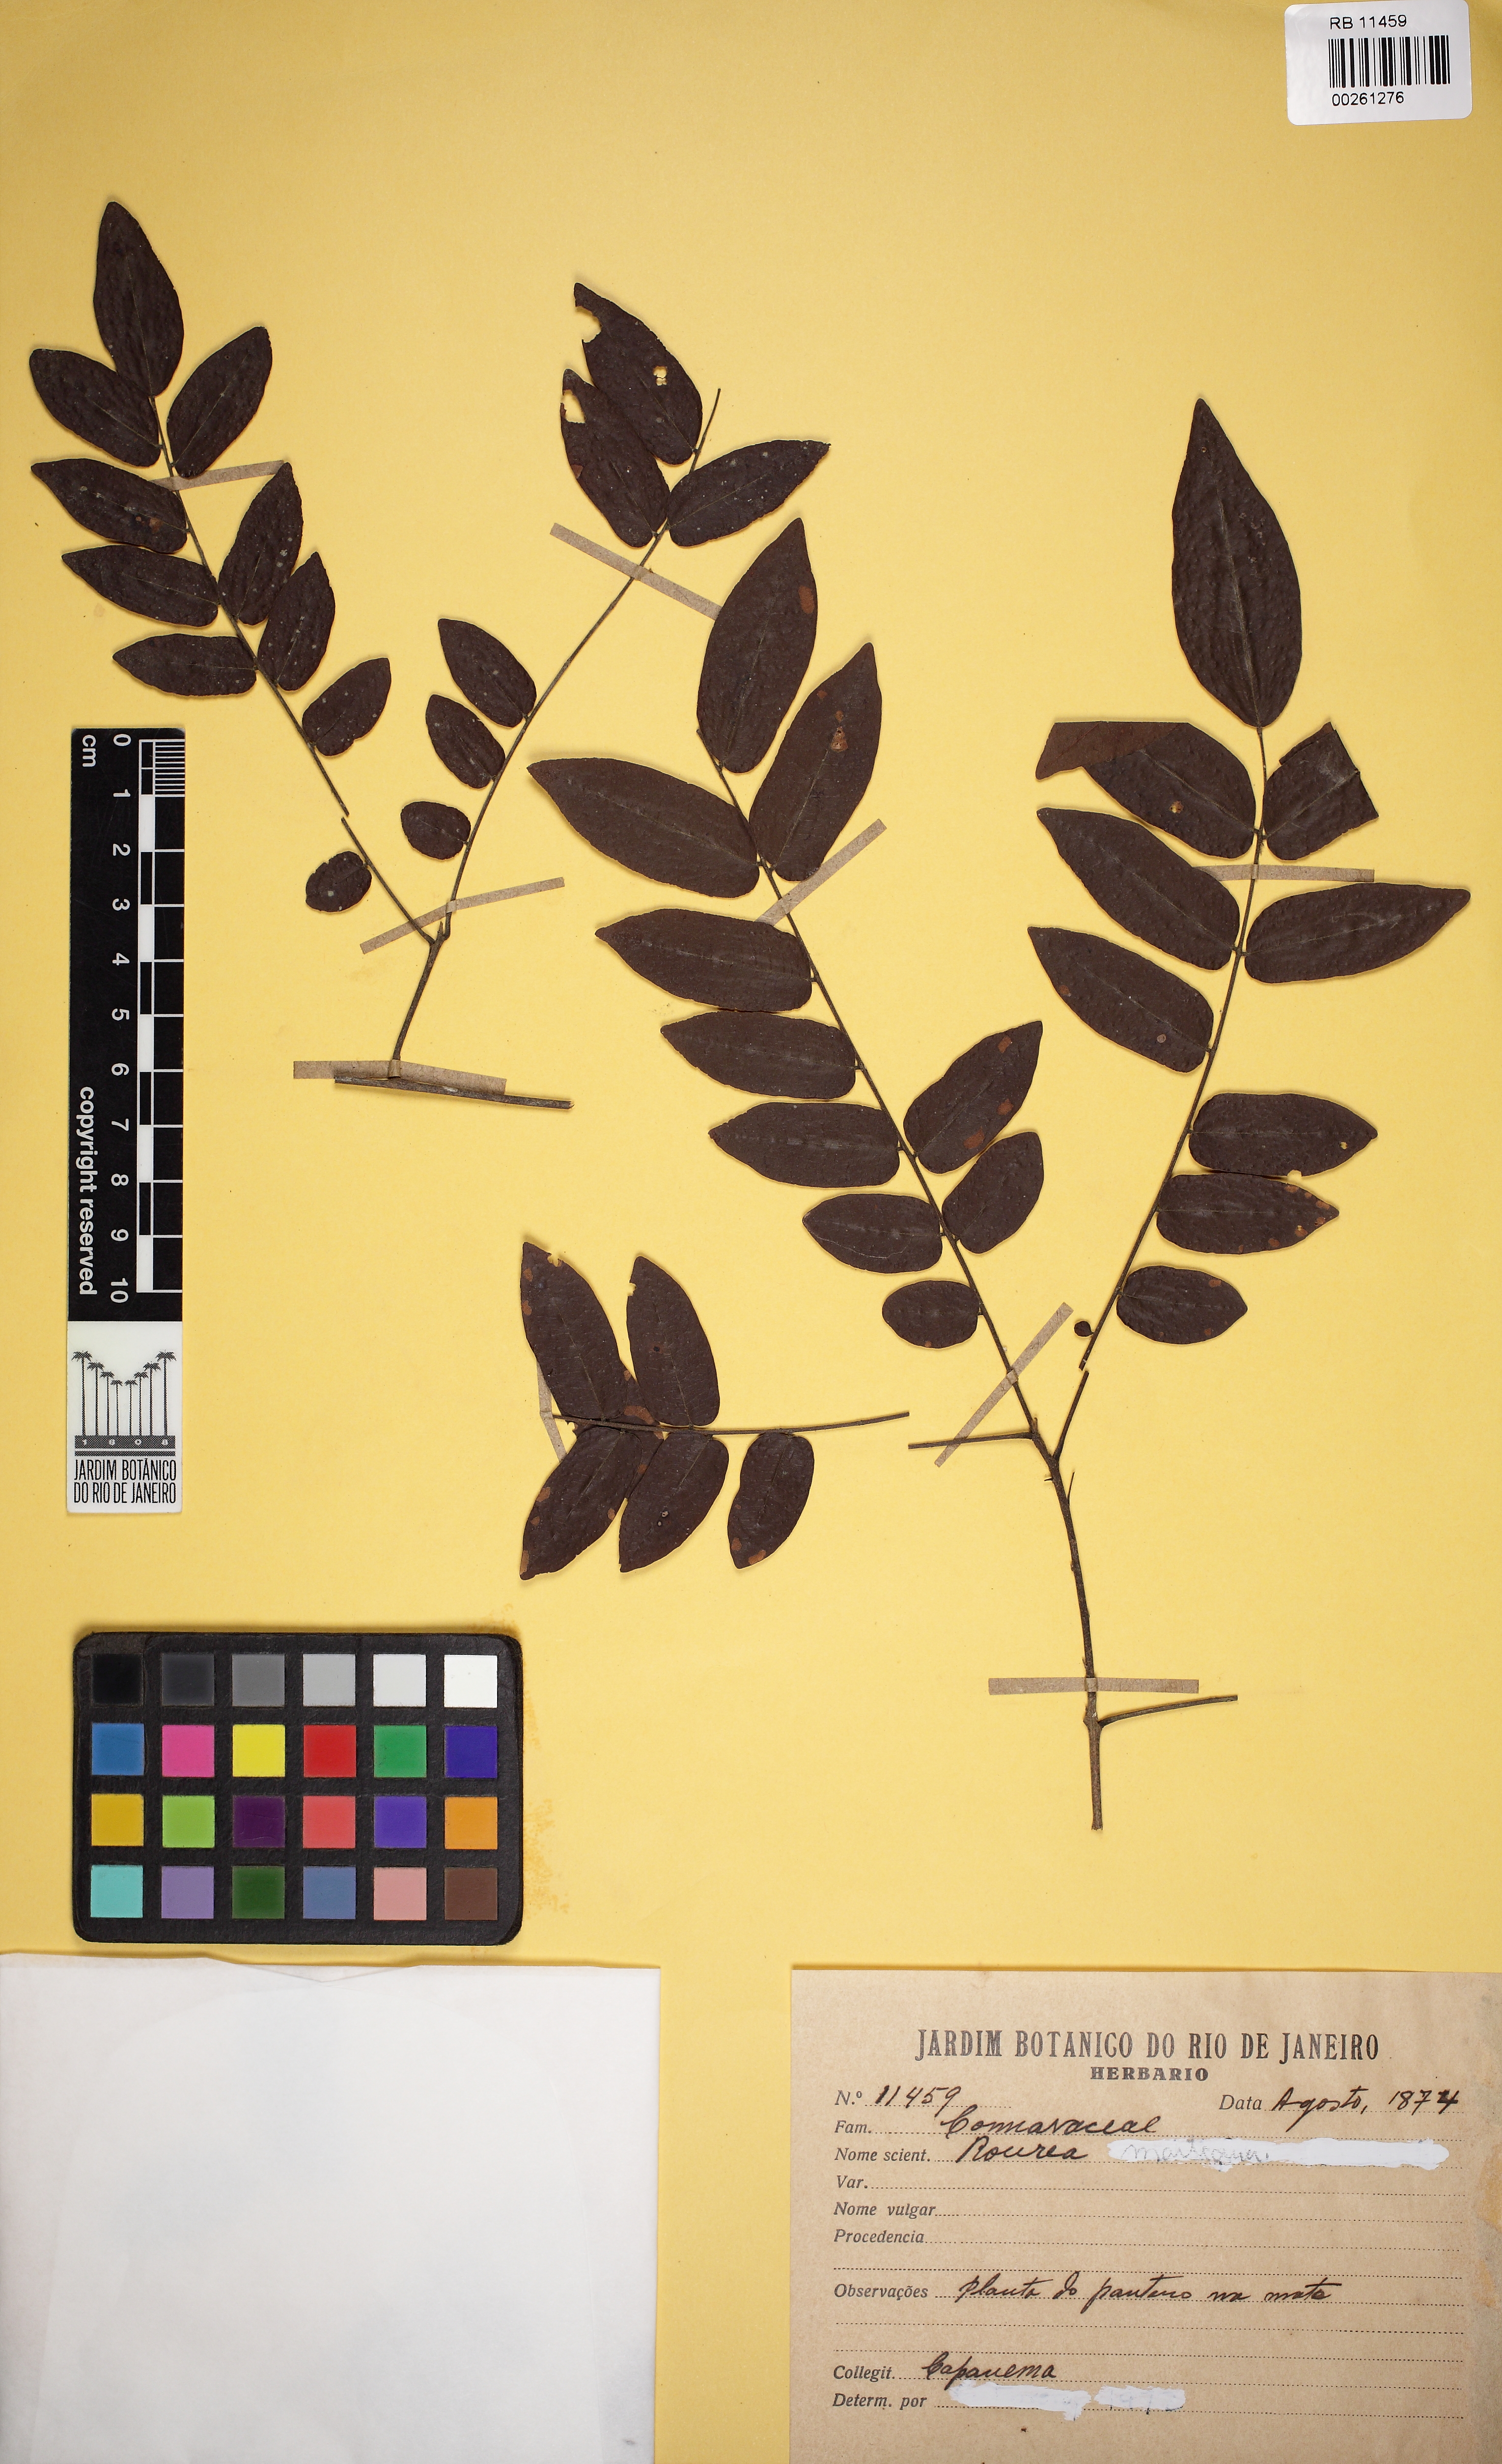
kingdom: Plantae
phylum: Tracheophyta
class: Magnoliopsida
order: Oxalidales
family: Connaraceae
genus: Rourea
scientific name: Rourea
